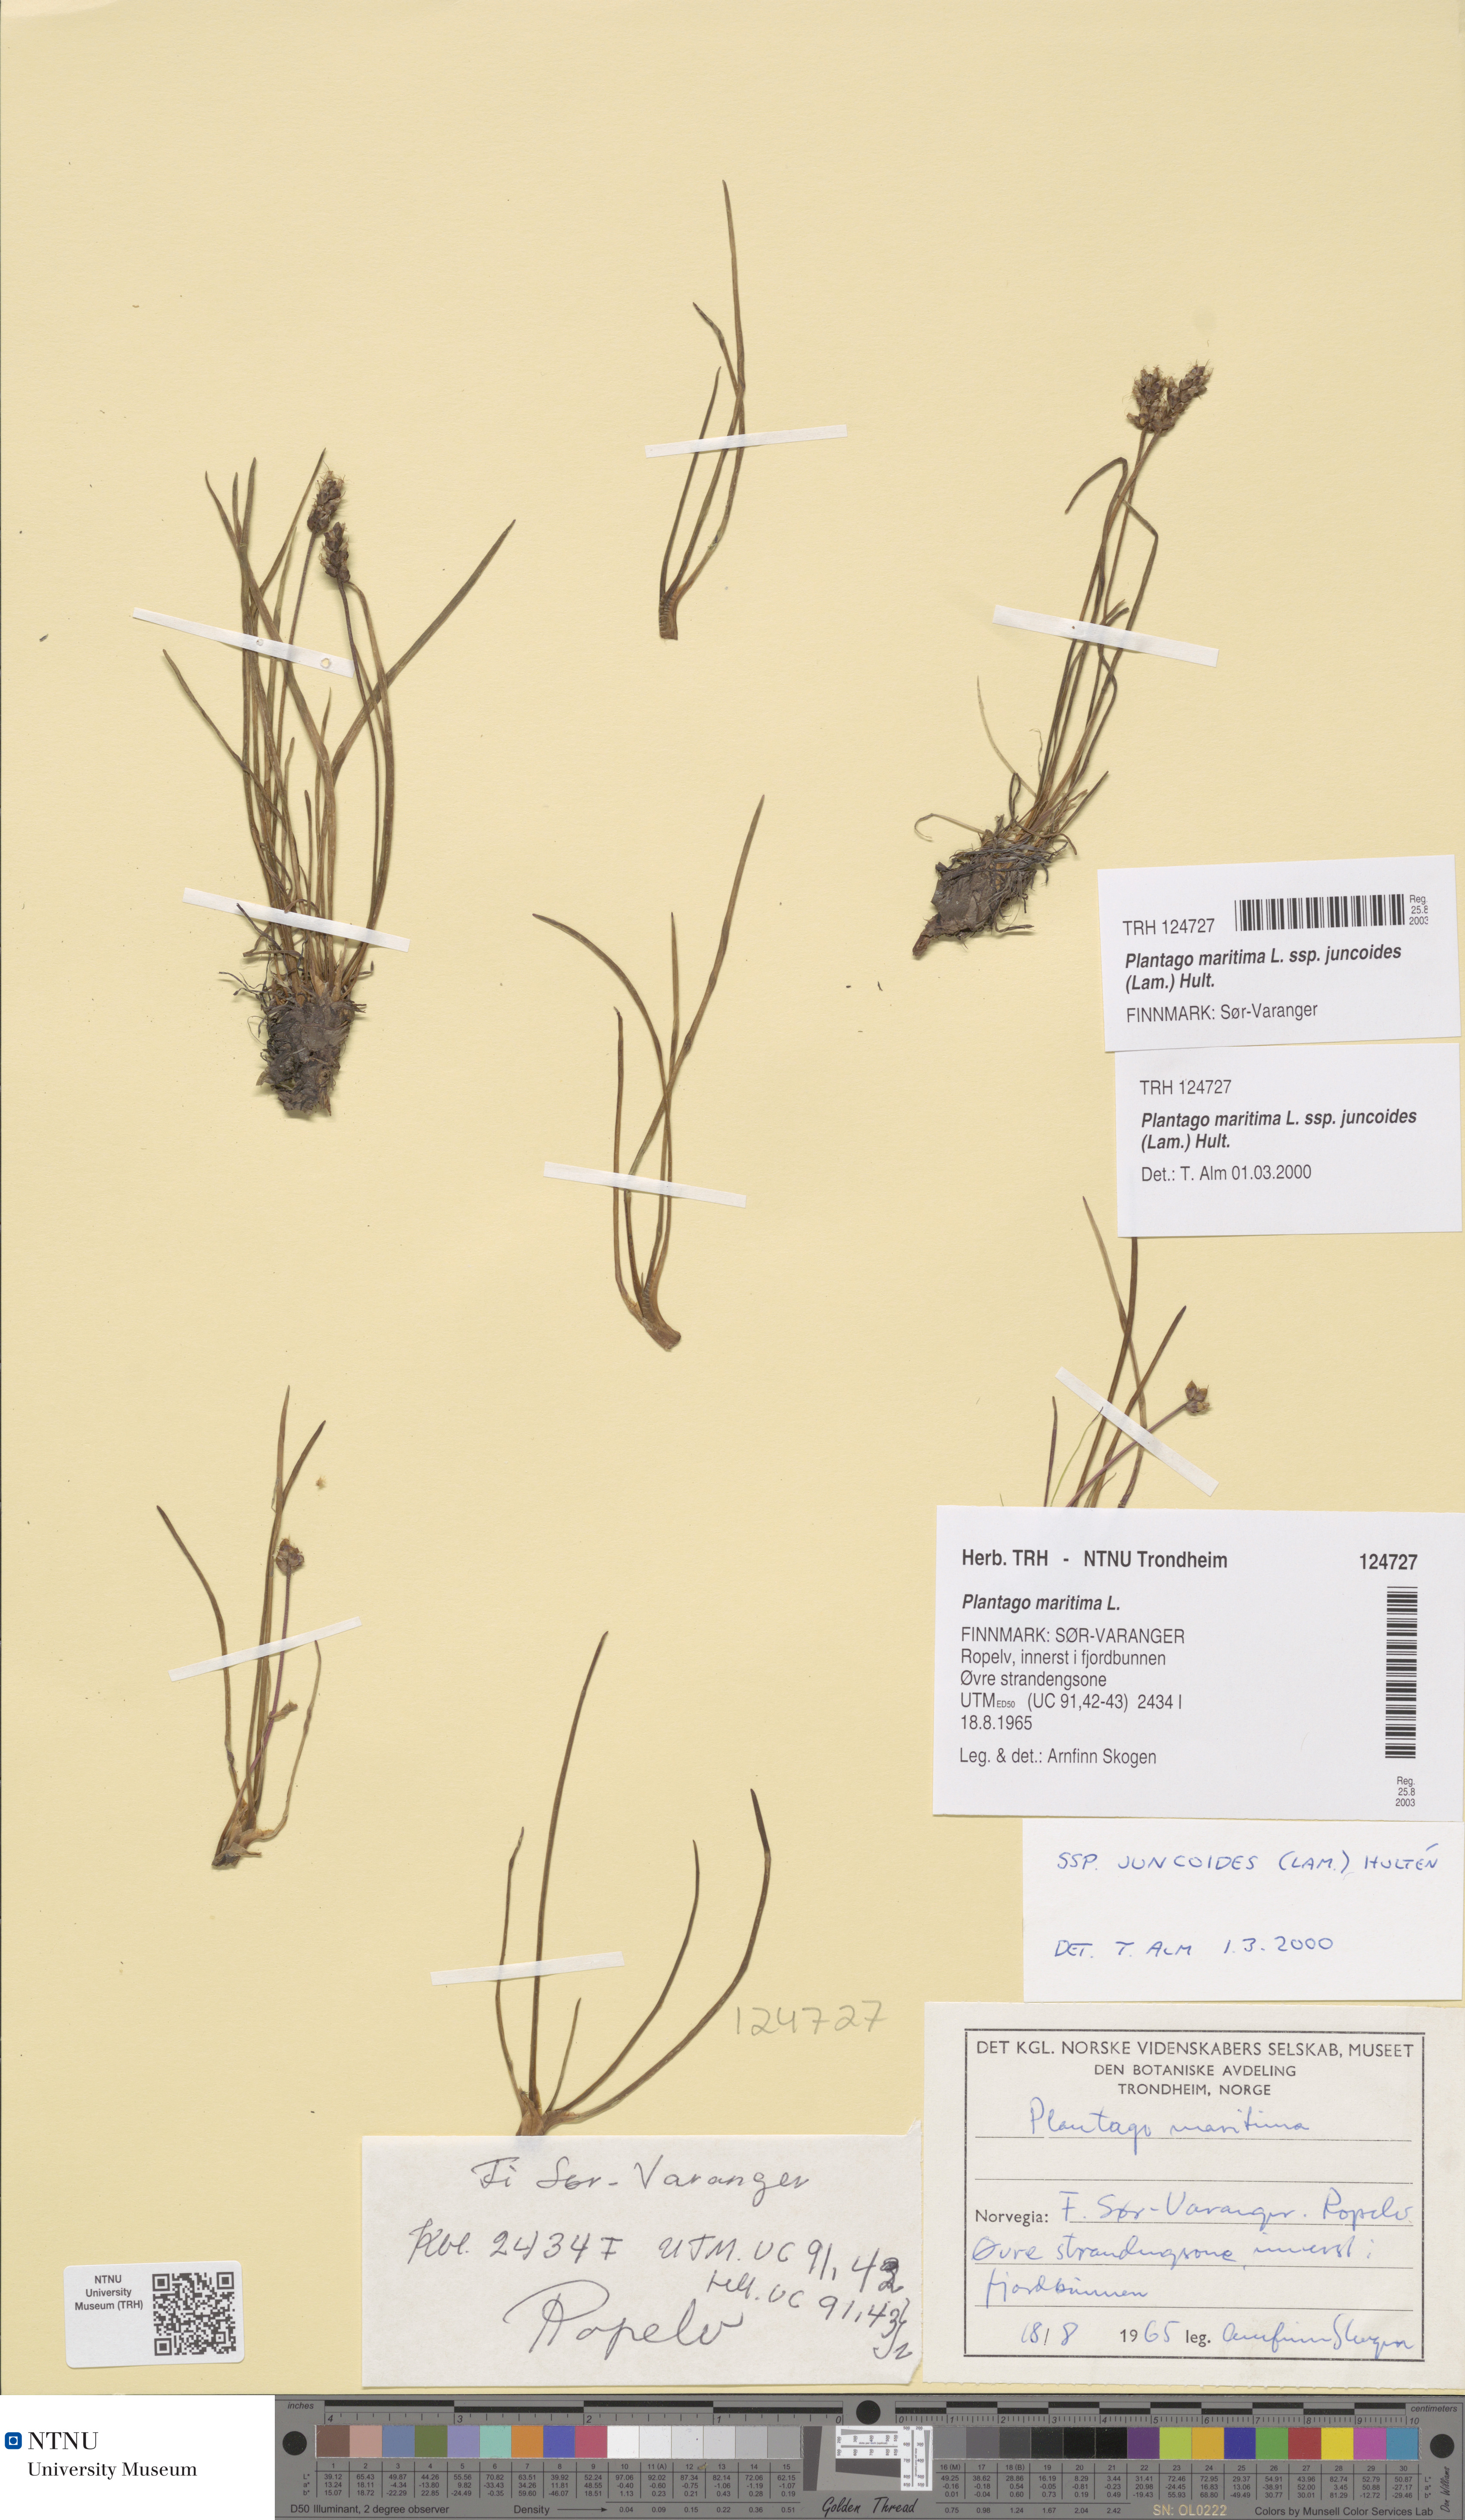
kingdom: Plantae
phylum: Tracheophyta
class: Magnoliopsida
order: Lamiales
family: Plantaginaceae
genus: Plantago
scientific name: Plantago maritima
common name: Sea plantain
